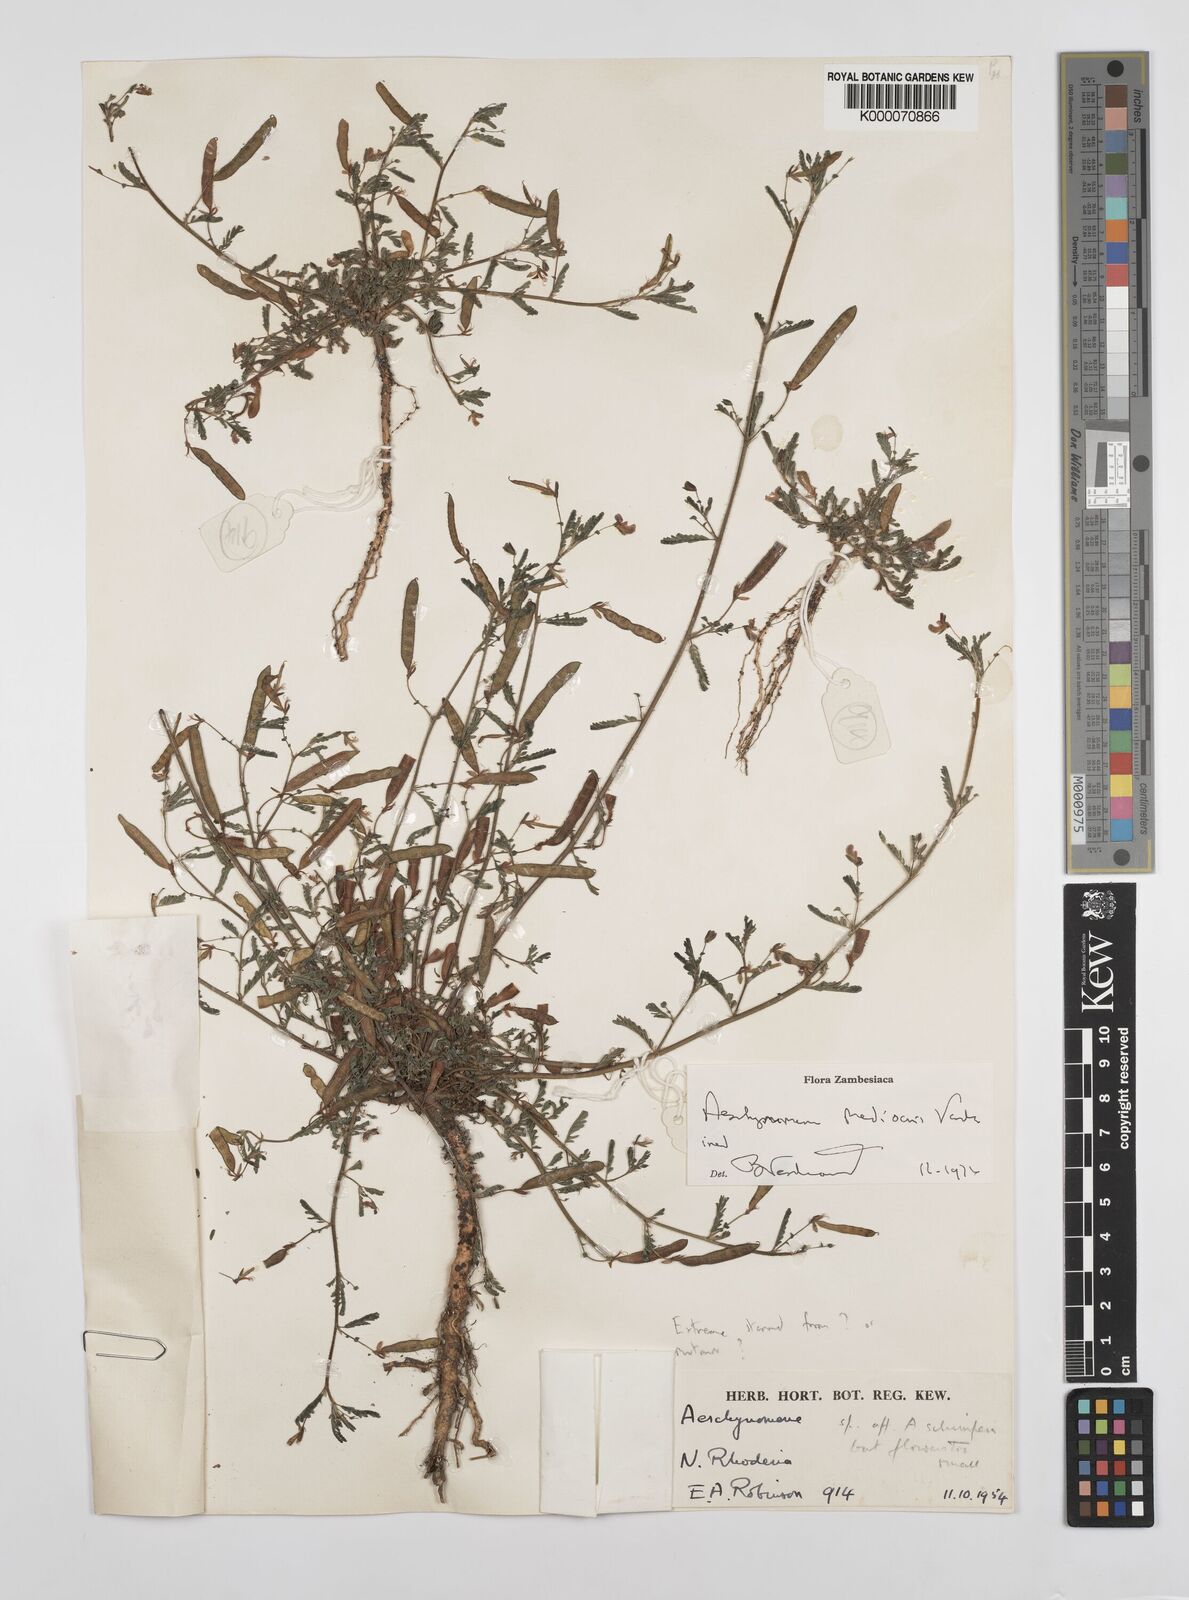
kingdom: Plantae
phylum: Tracheophyta
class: Magnoliopsida
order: Fabales
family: Fabaceae
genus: Aeschynomene
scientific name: Aeschynomene mediocris
